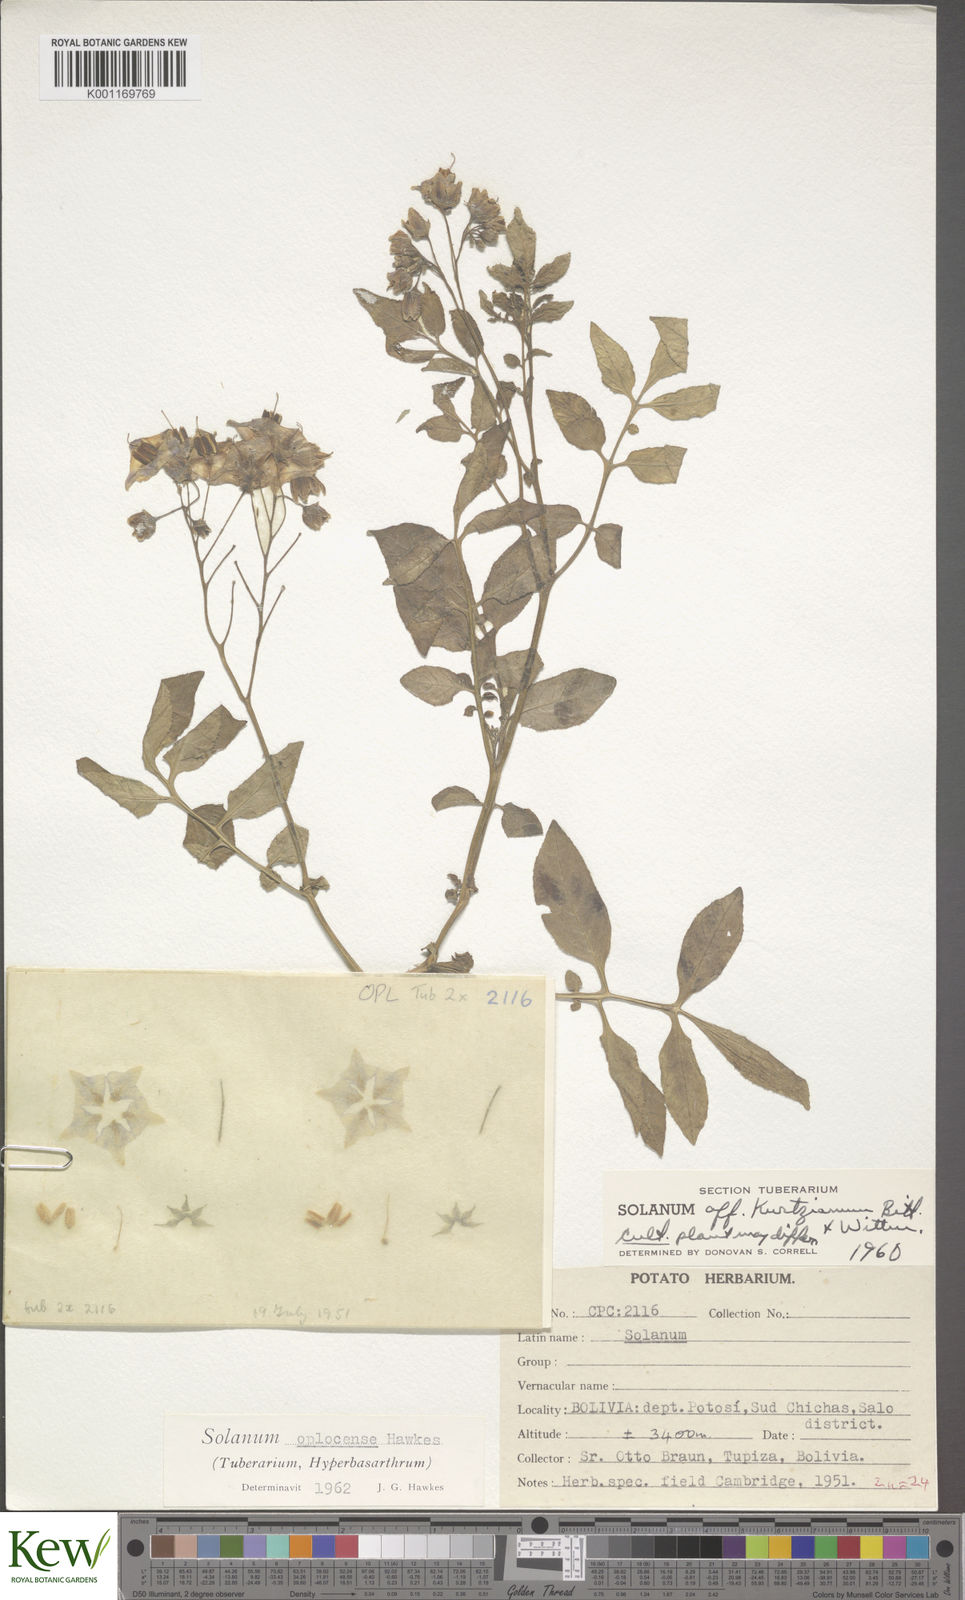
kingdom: Plantae
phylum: Tracheophyta
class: Magnoliopsida
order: Solanales
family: Solanaceae
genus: Solanum
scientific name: Solanum brevicaule
